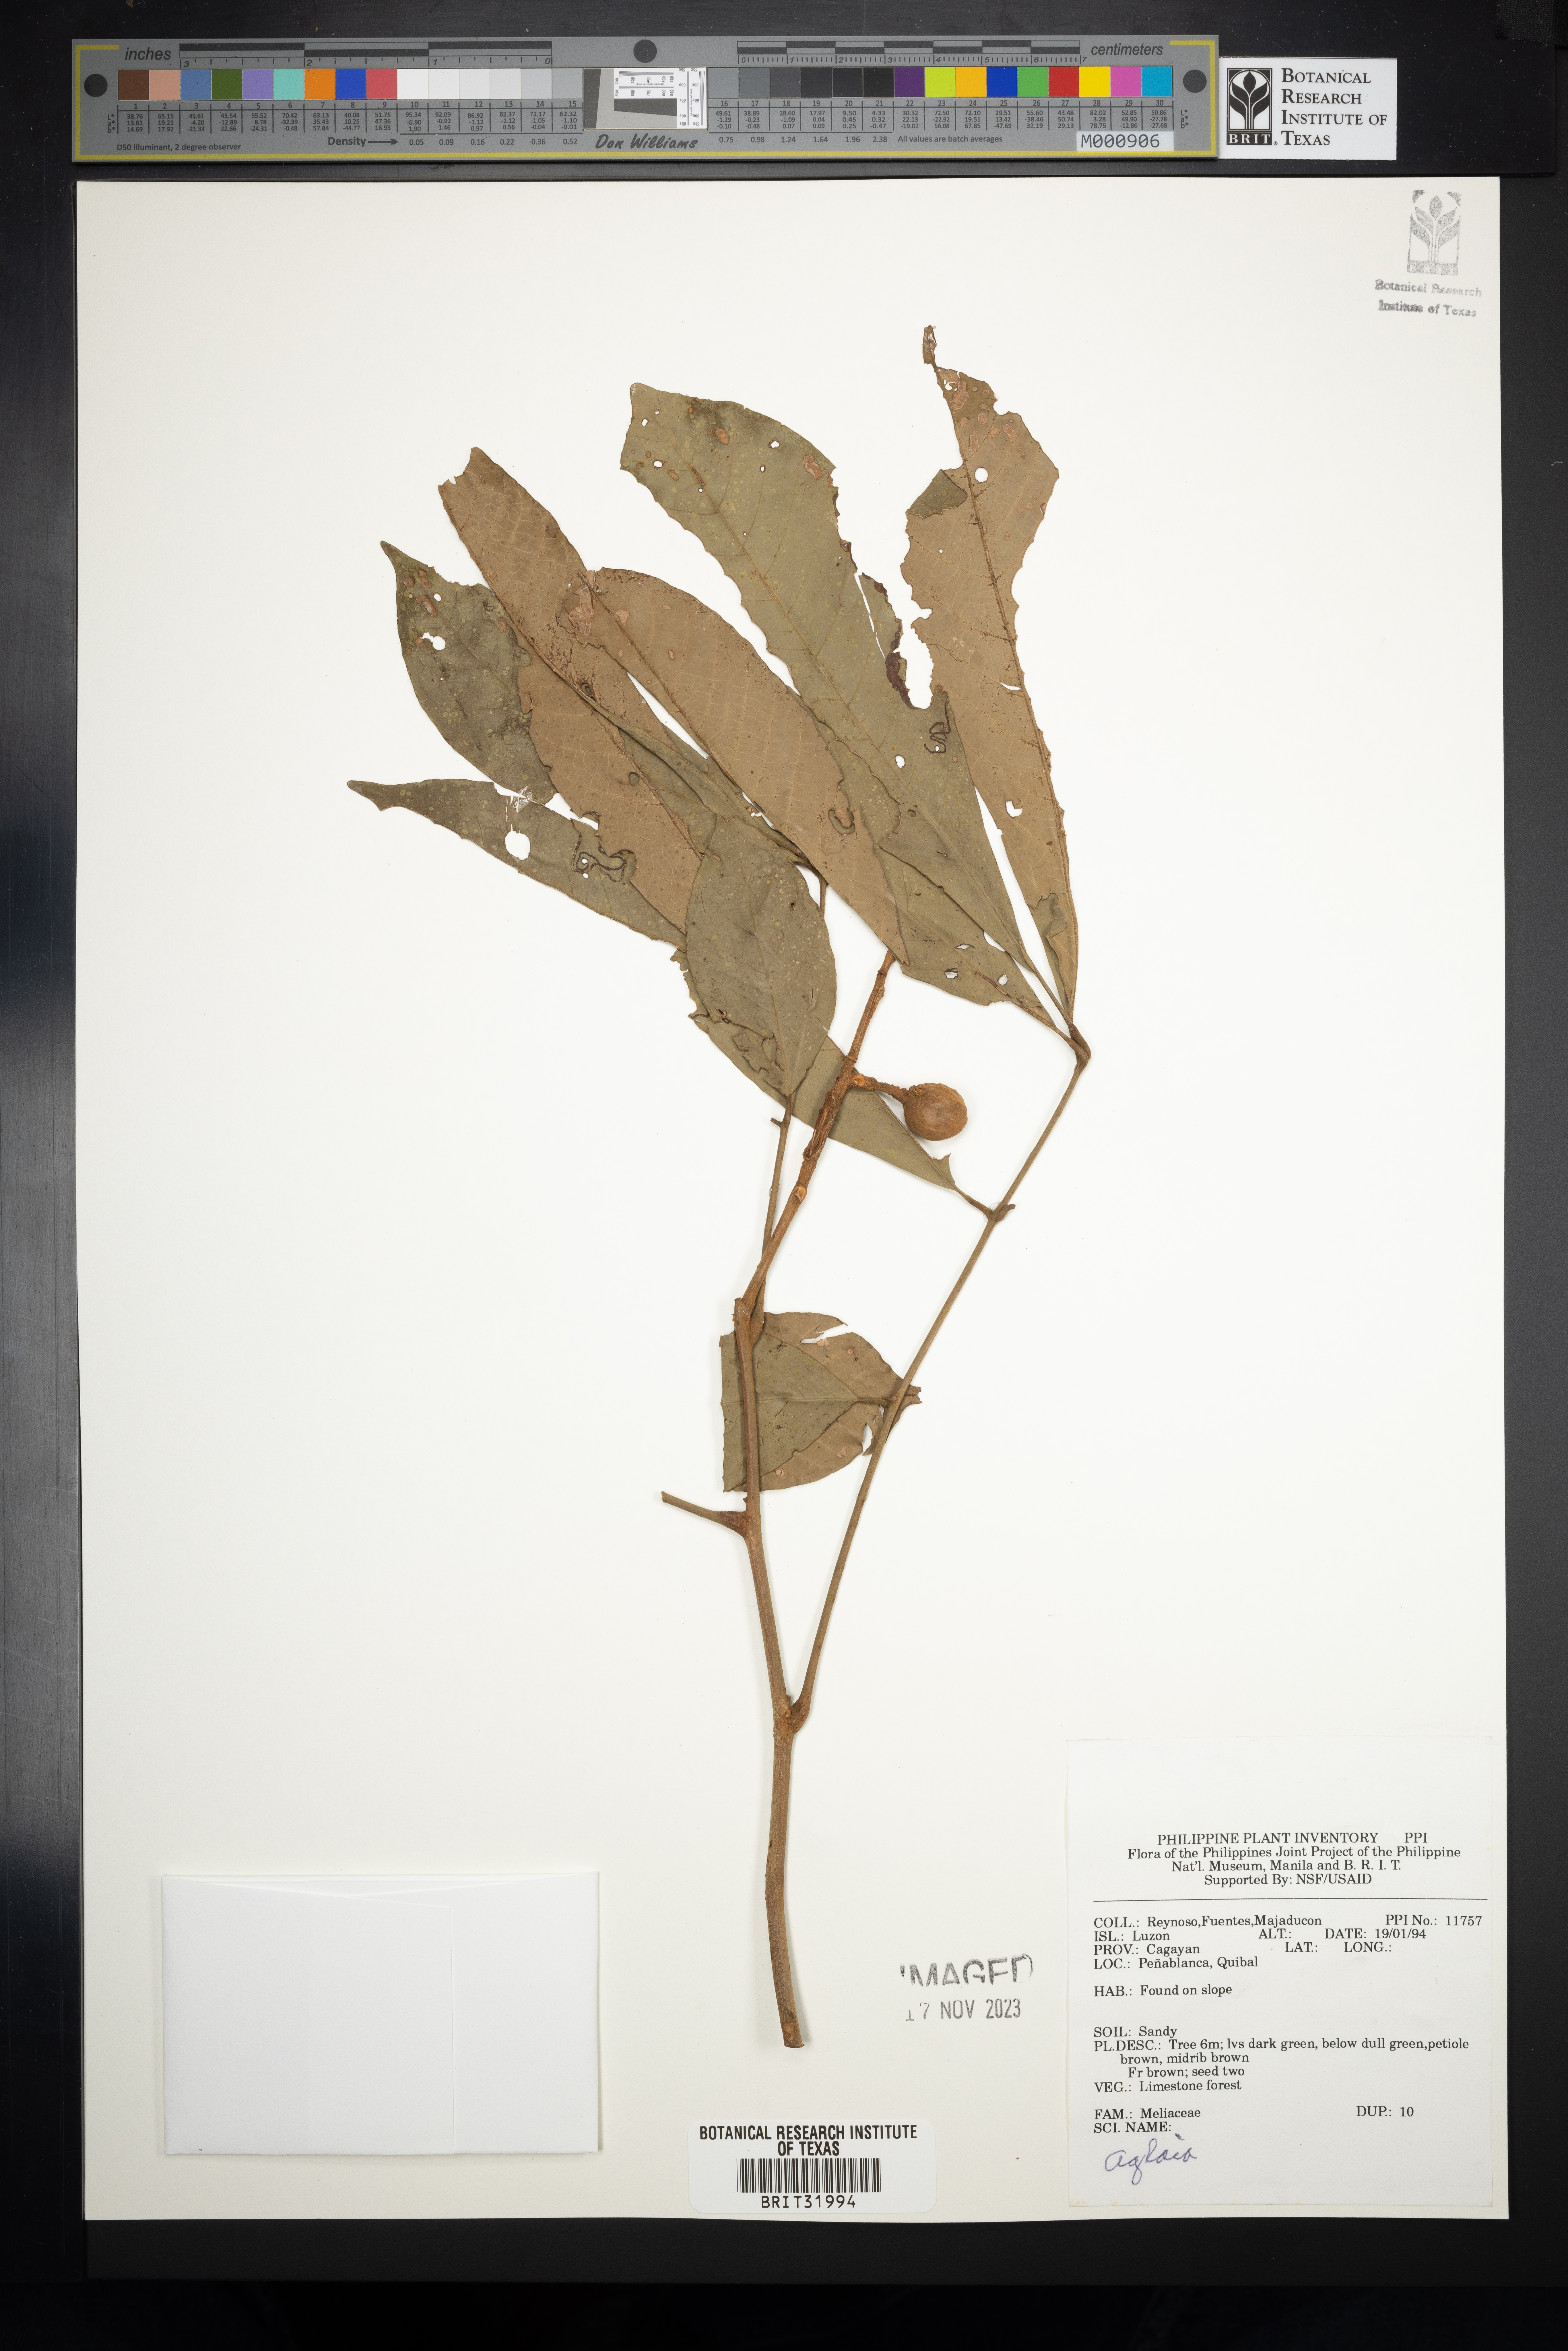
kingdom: Plantae
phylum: Tracheophyta
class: Magnoliopsida
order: Sapindales
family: Meliaceae
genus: Aglaia
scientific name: Aglaia
